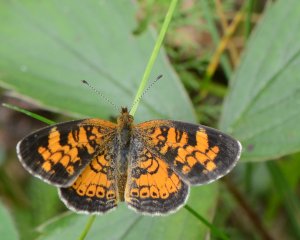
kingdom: Animalia
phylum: Arthropoda
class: Insecta
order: Lepidoptera
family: Nymphalidae
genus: Phyciodes
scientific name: Phyciodes tharos
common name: Northern Crescent
